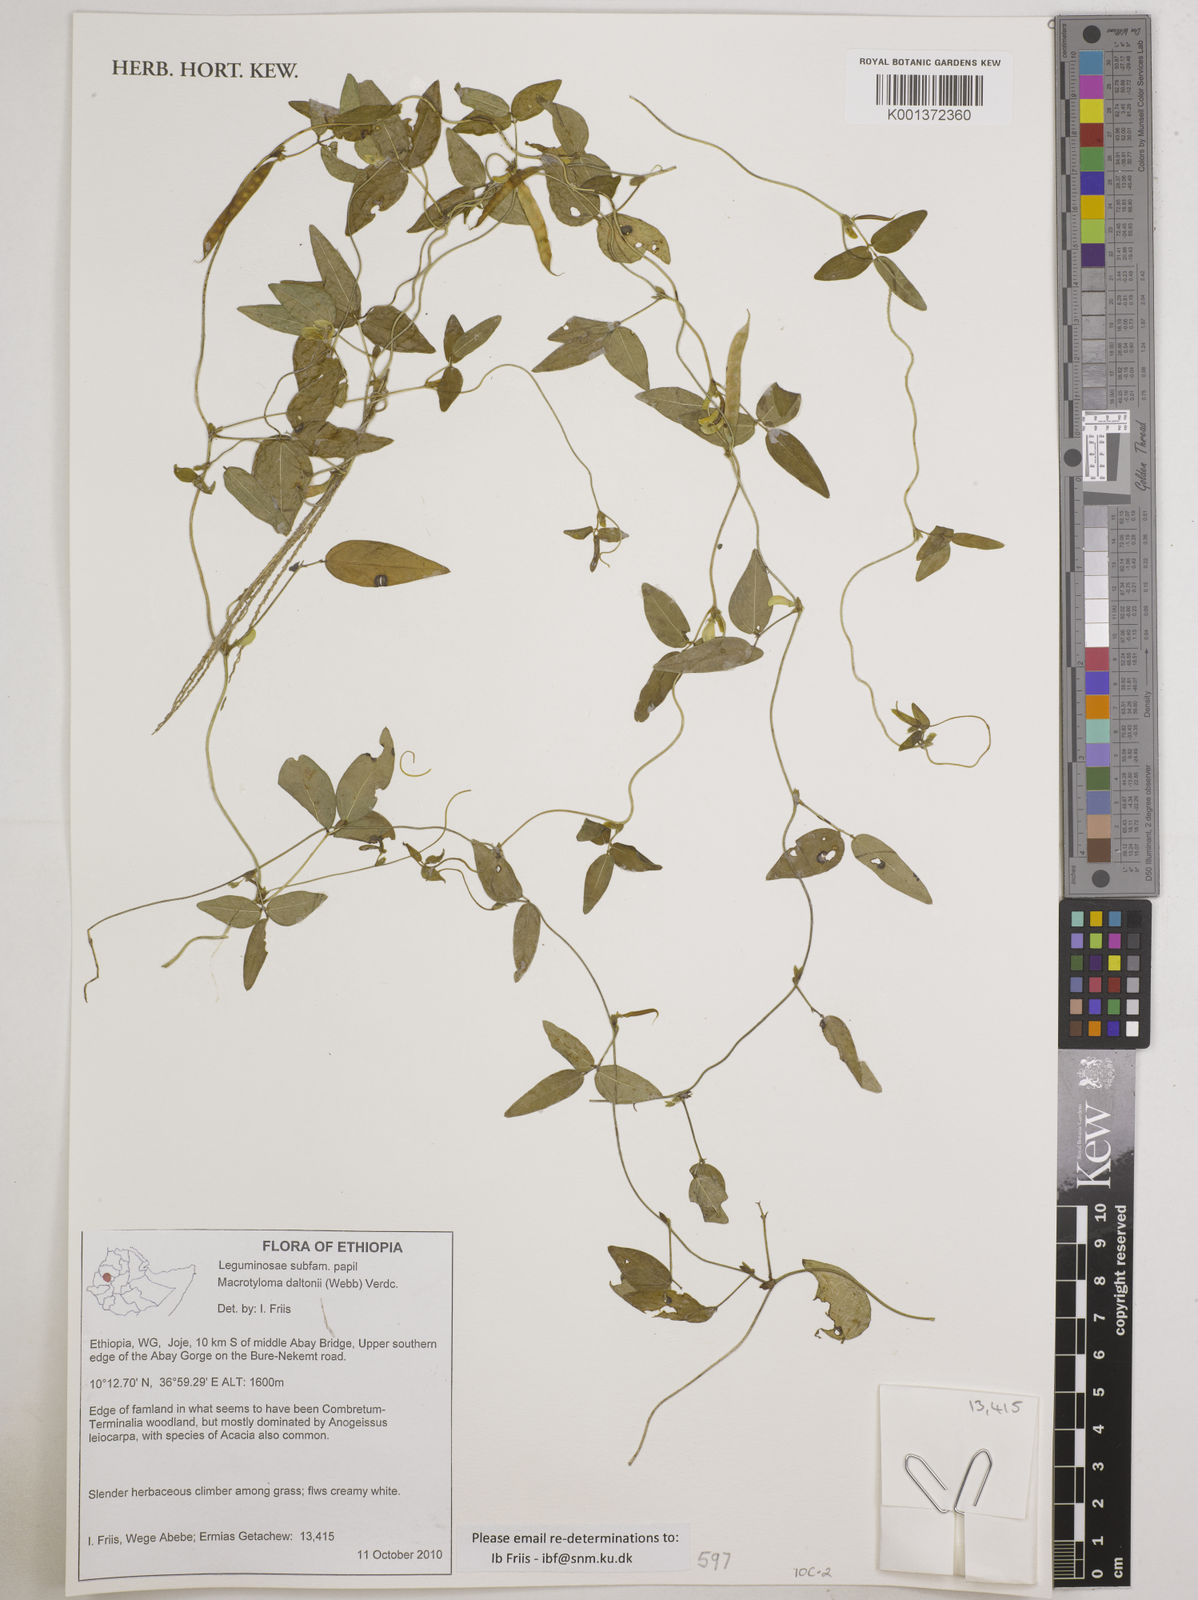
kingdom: Plantae
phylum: Tracheophyta
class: Magnoliopsida
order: Fabales
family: Fabaceae
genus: Macrotyloma
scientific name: Macrotyloma daltonii
